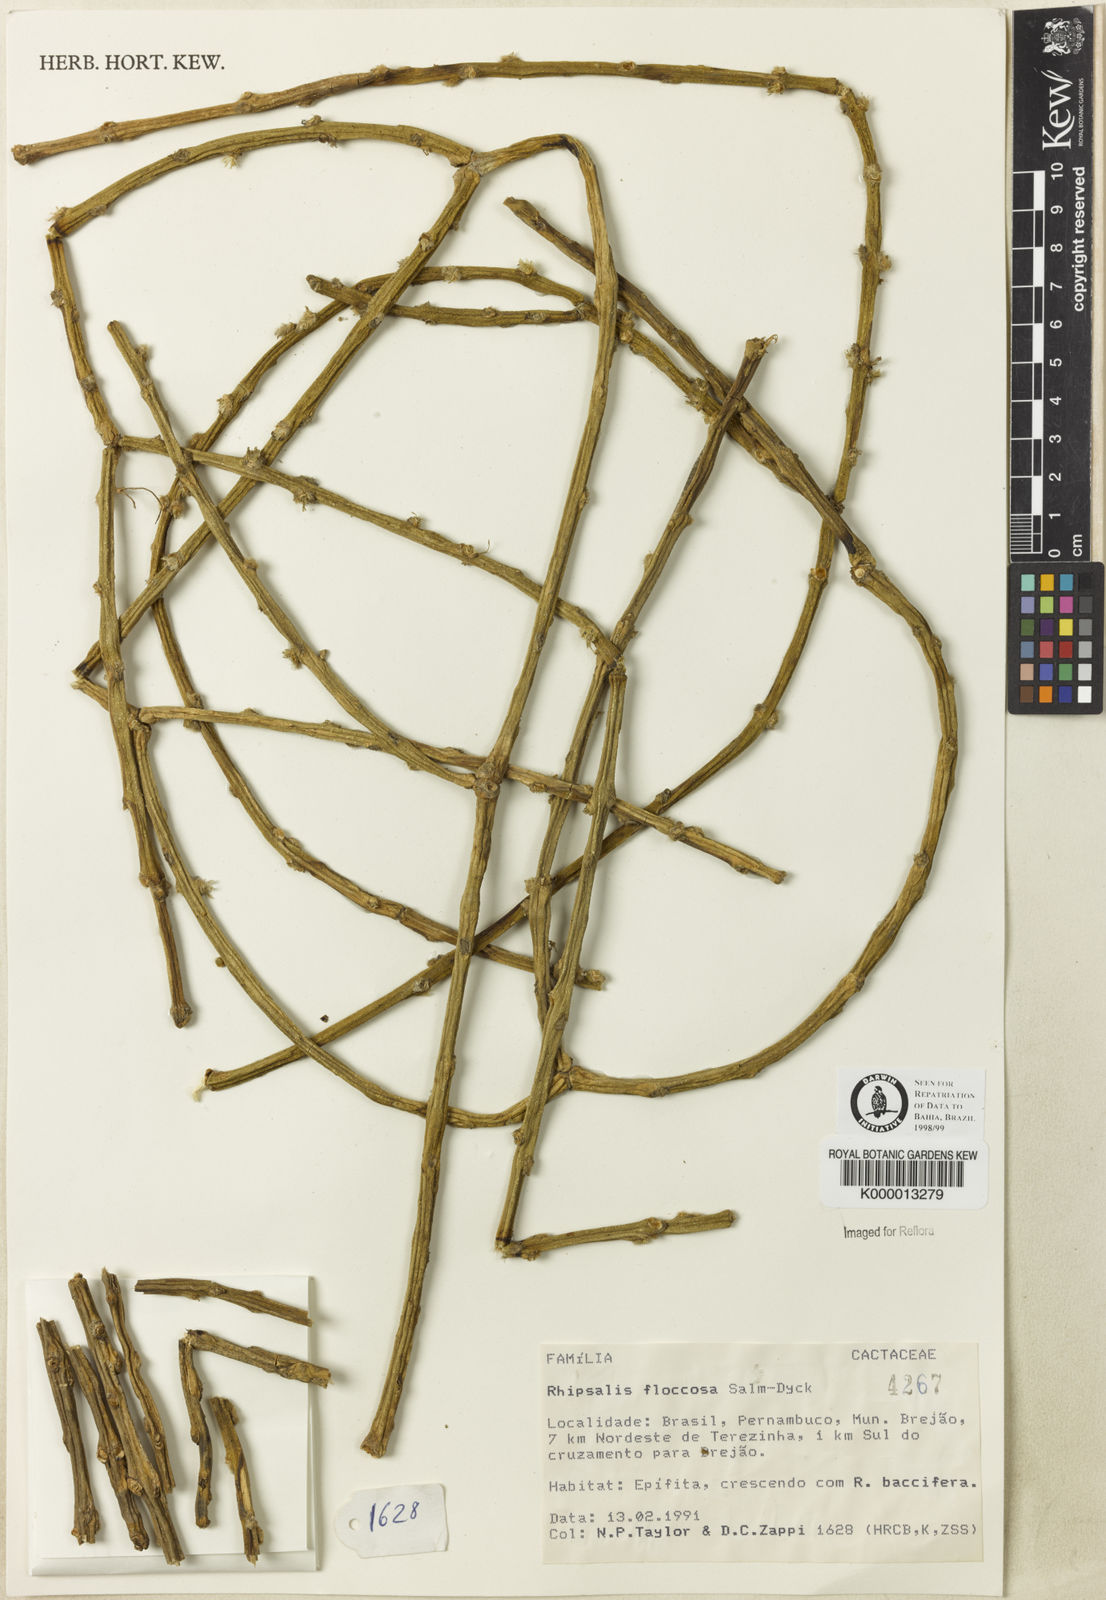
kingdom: Plantae
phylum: Tracheophyta
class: Magnoliopsida
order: Caryophyllales
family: Cactaceae
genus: Rhipsalis
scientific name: Rhipsalis floccosa
